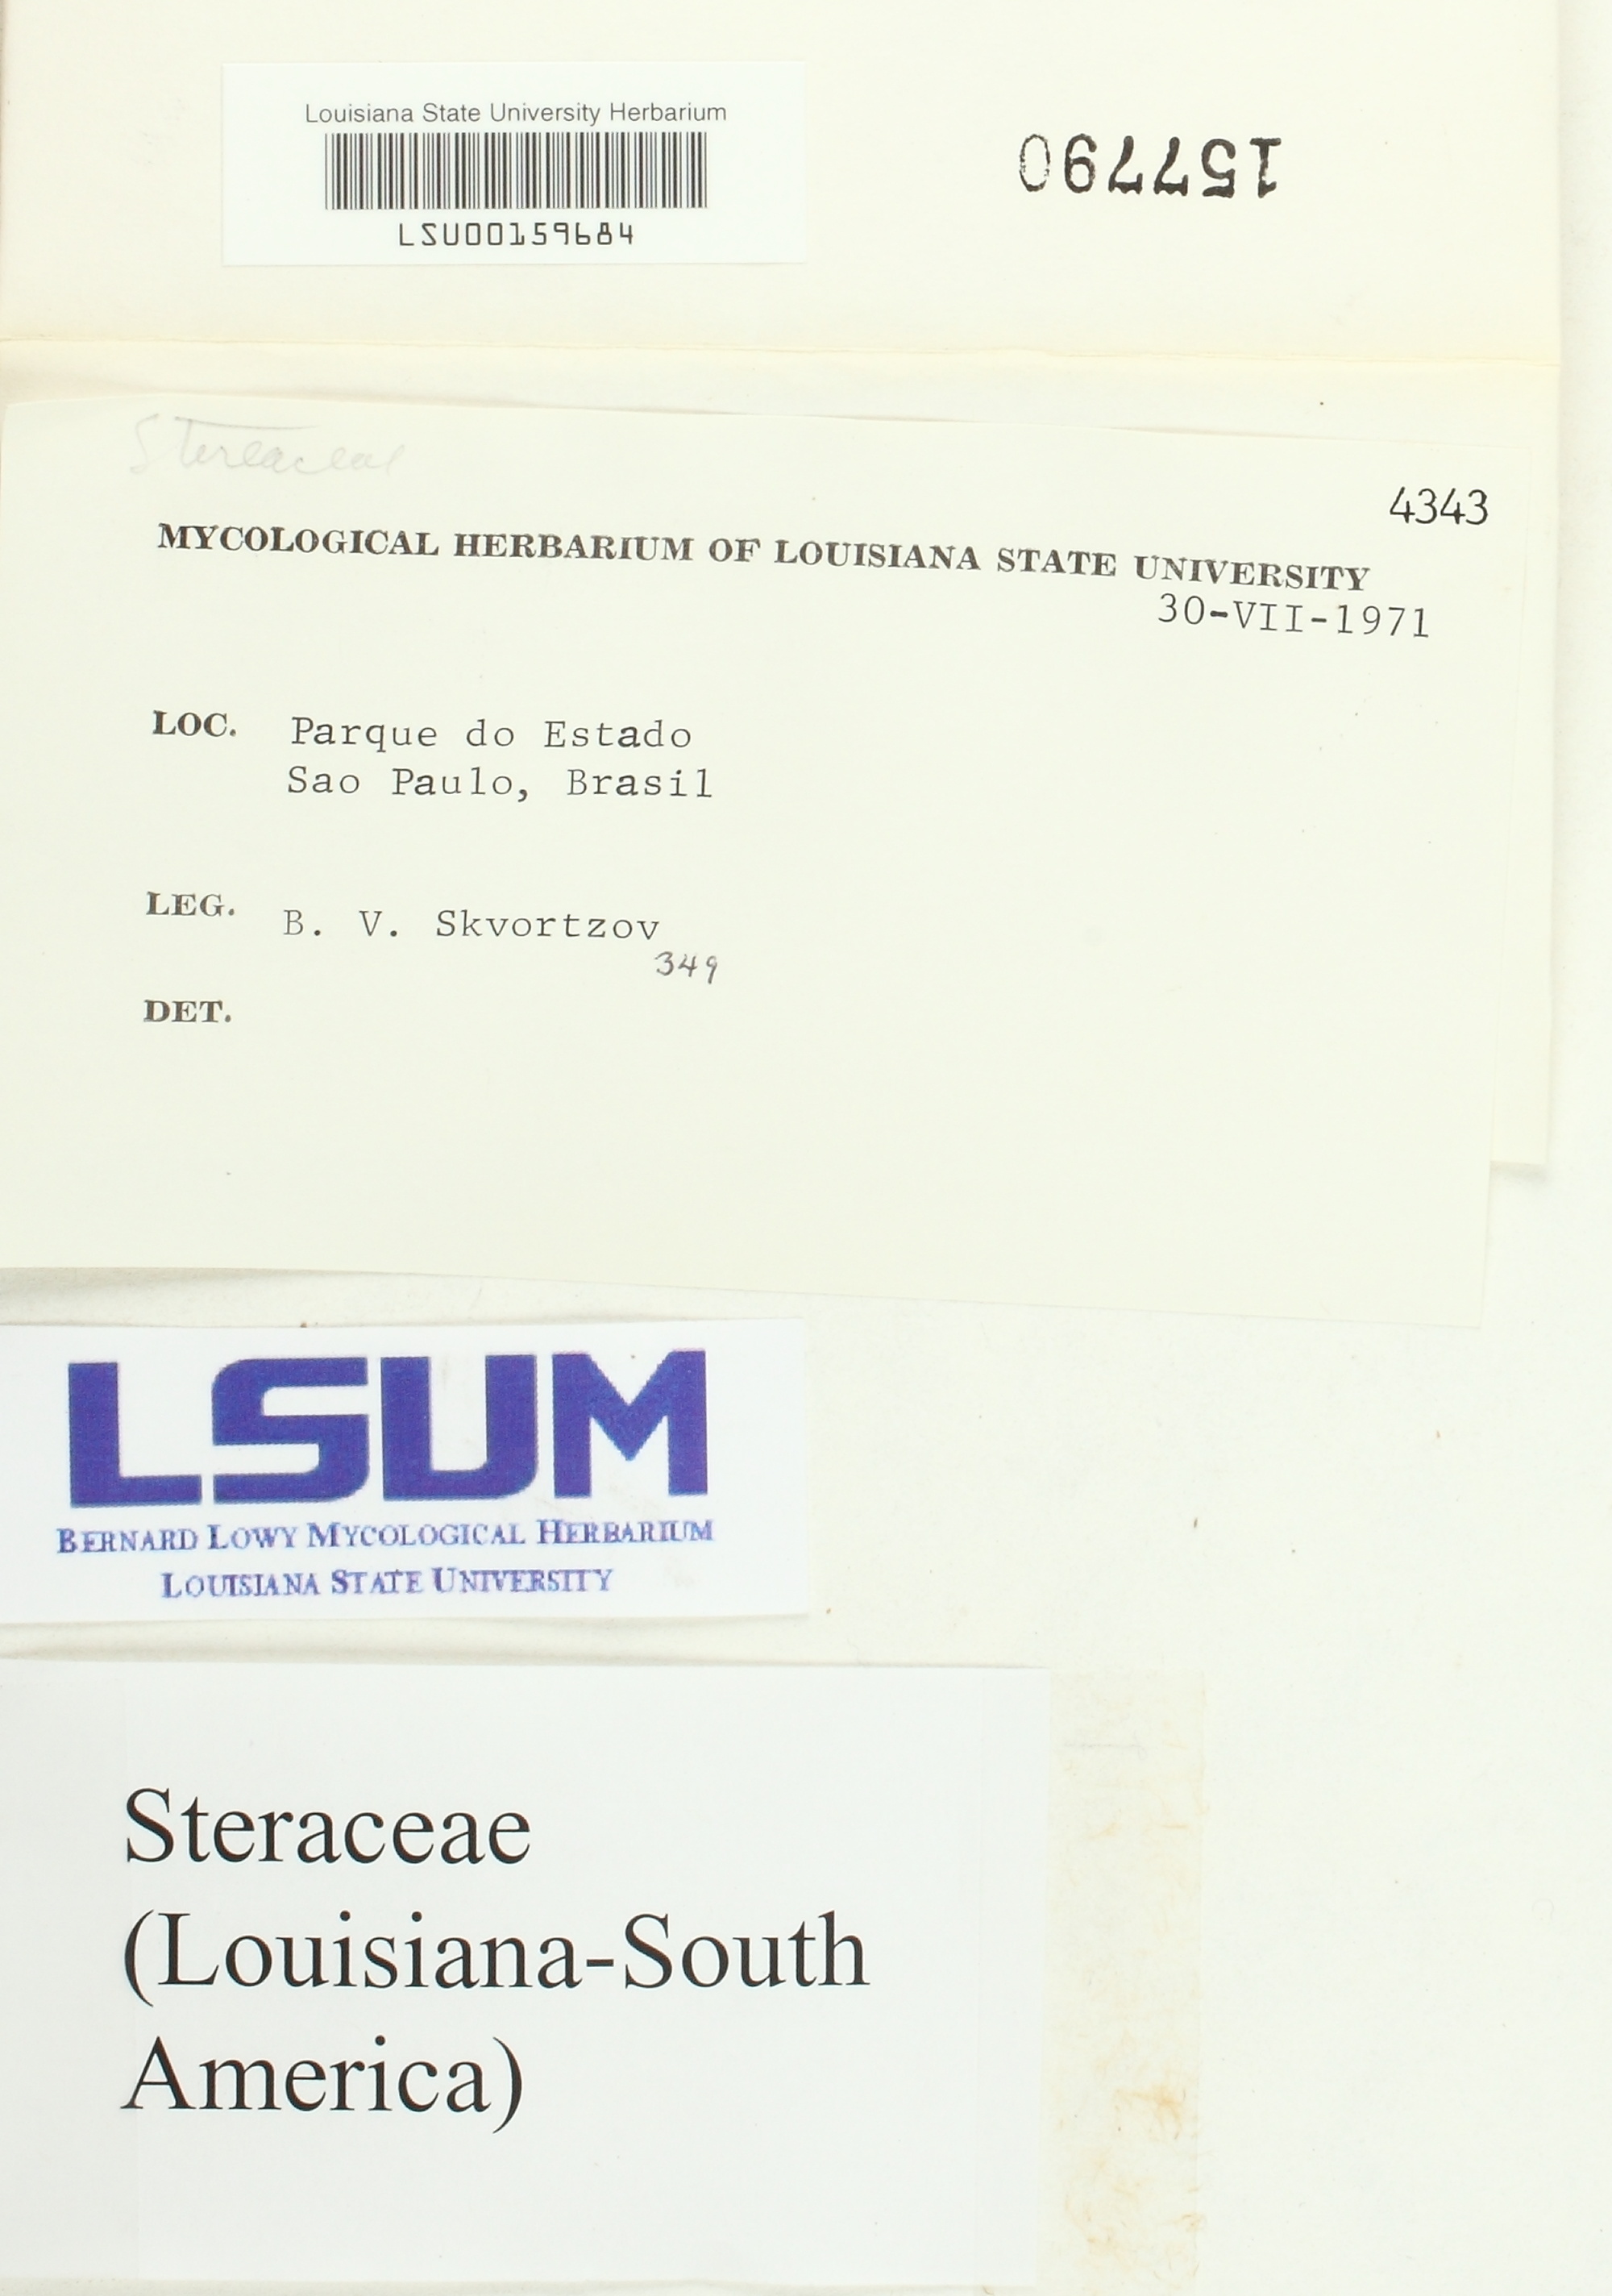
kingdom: Fungi
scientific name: Fungi
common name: Fungi
